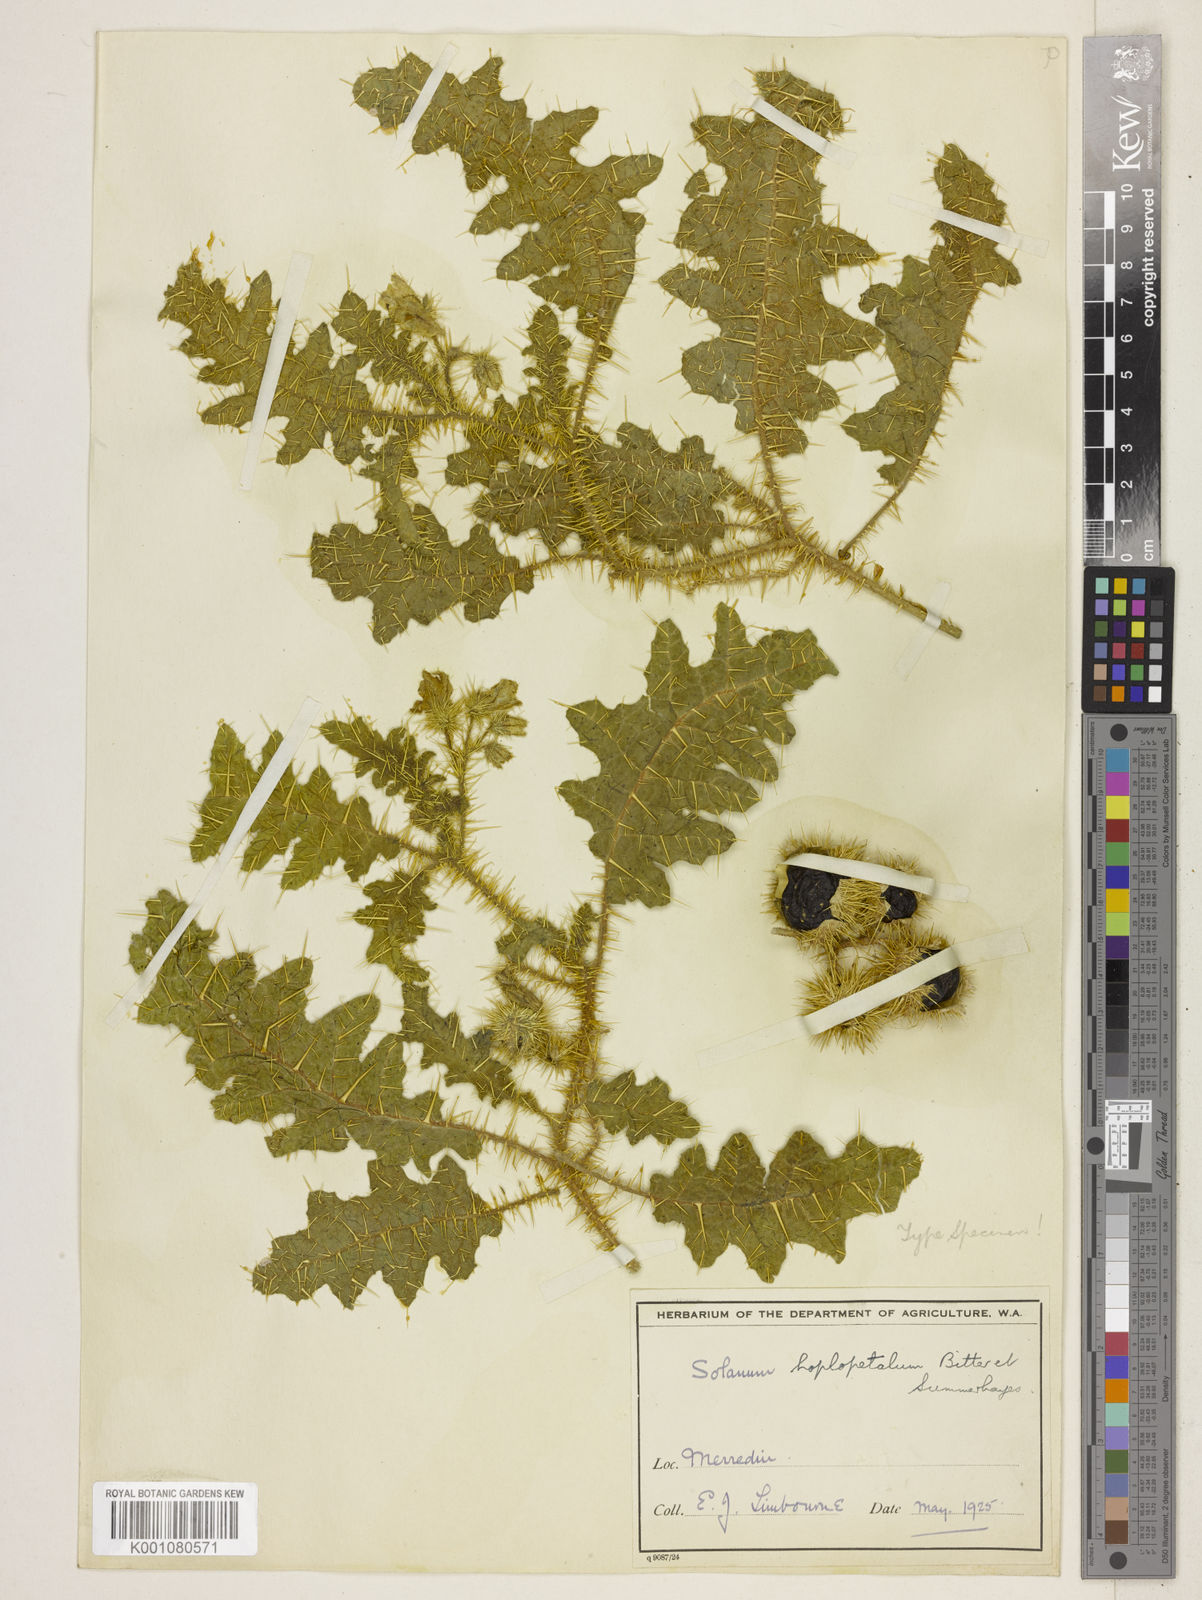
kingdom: Plantae
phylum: Tracheophyta
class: Magnoliopsida
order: Solanales
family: Solanaceae
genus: Solanum
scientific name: Solanum hoplopetalum
